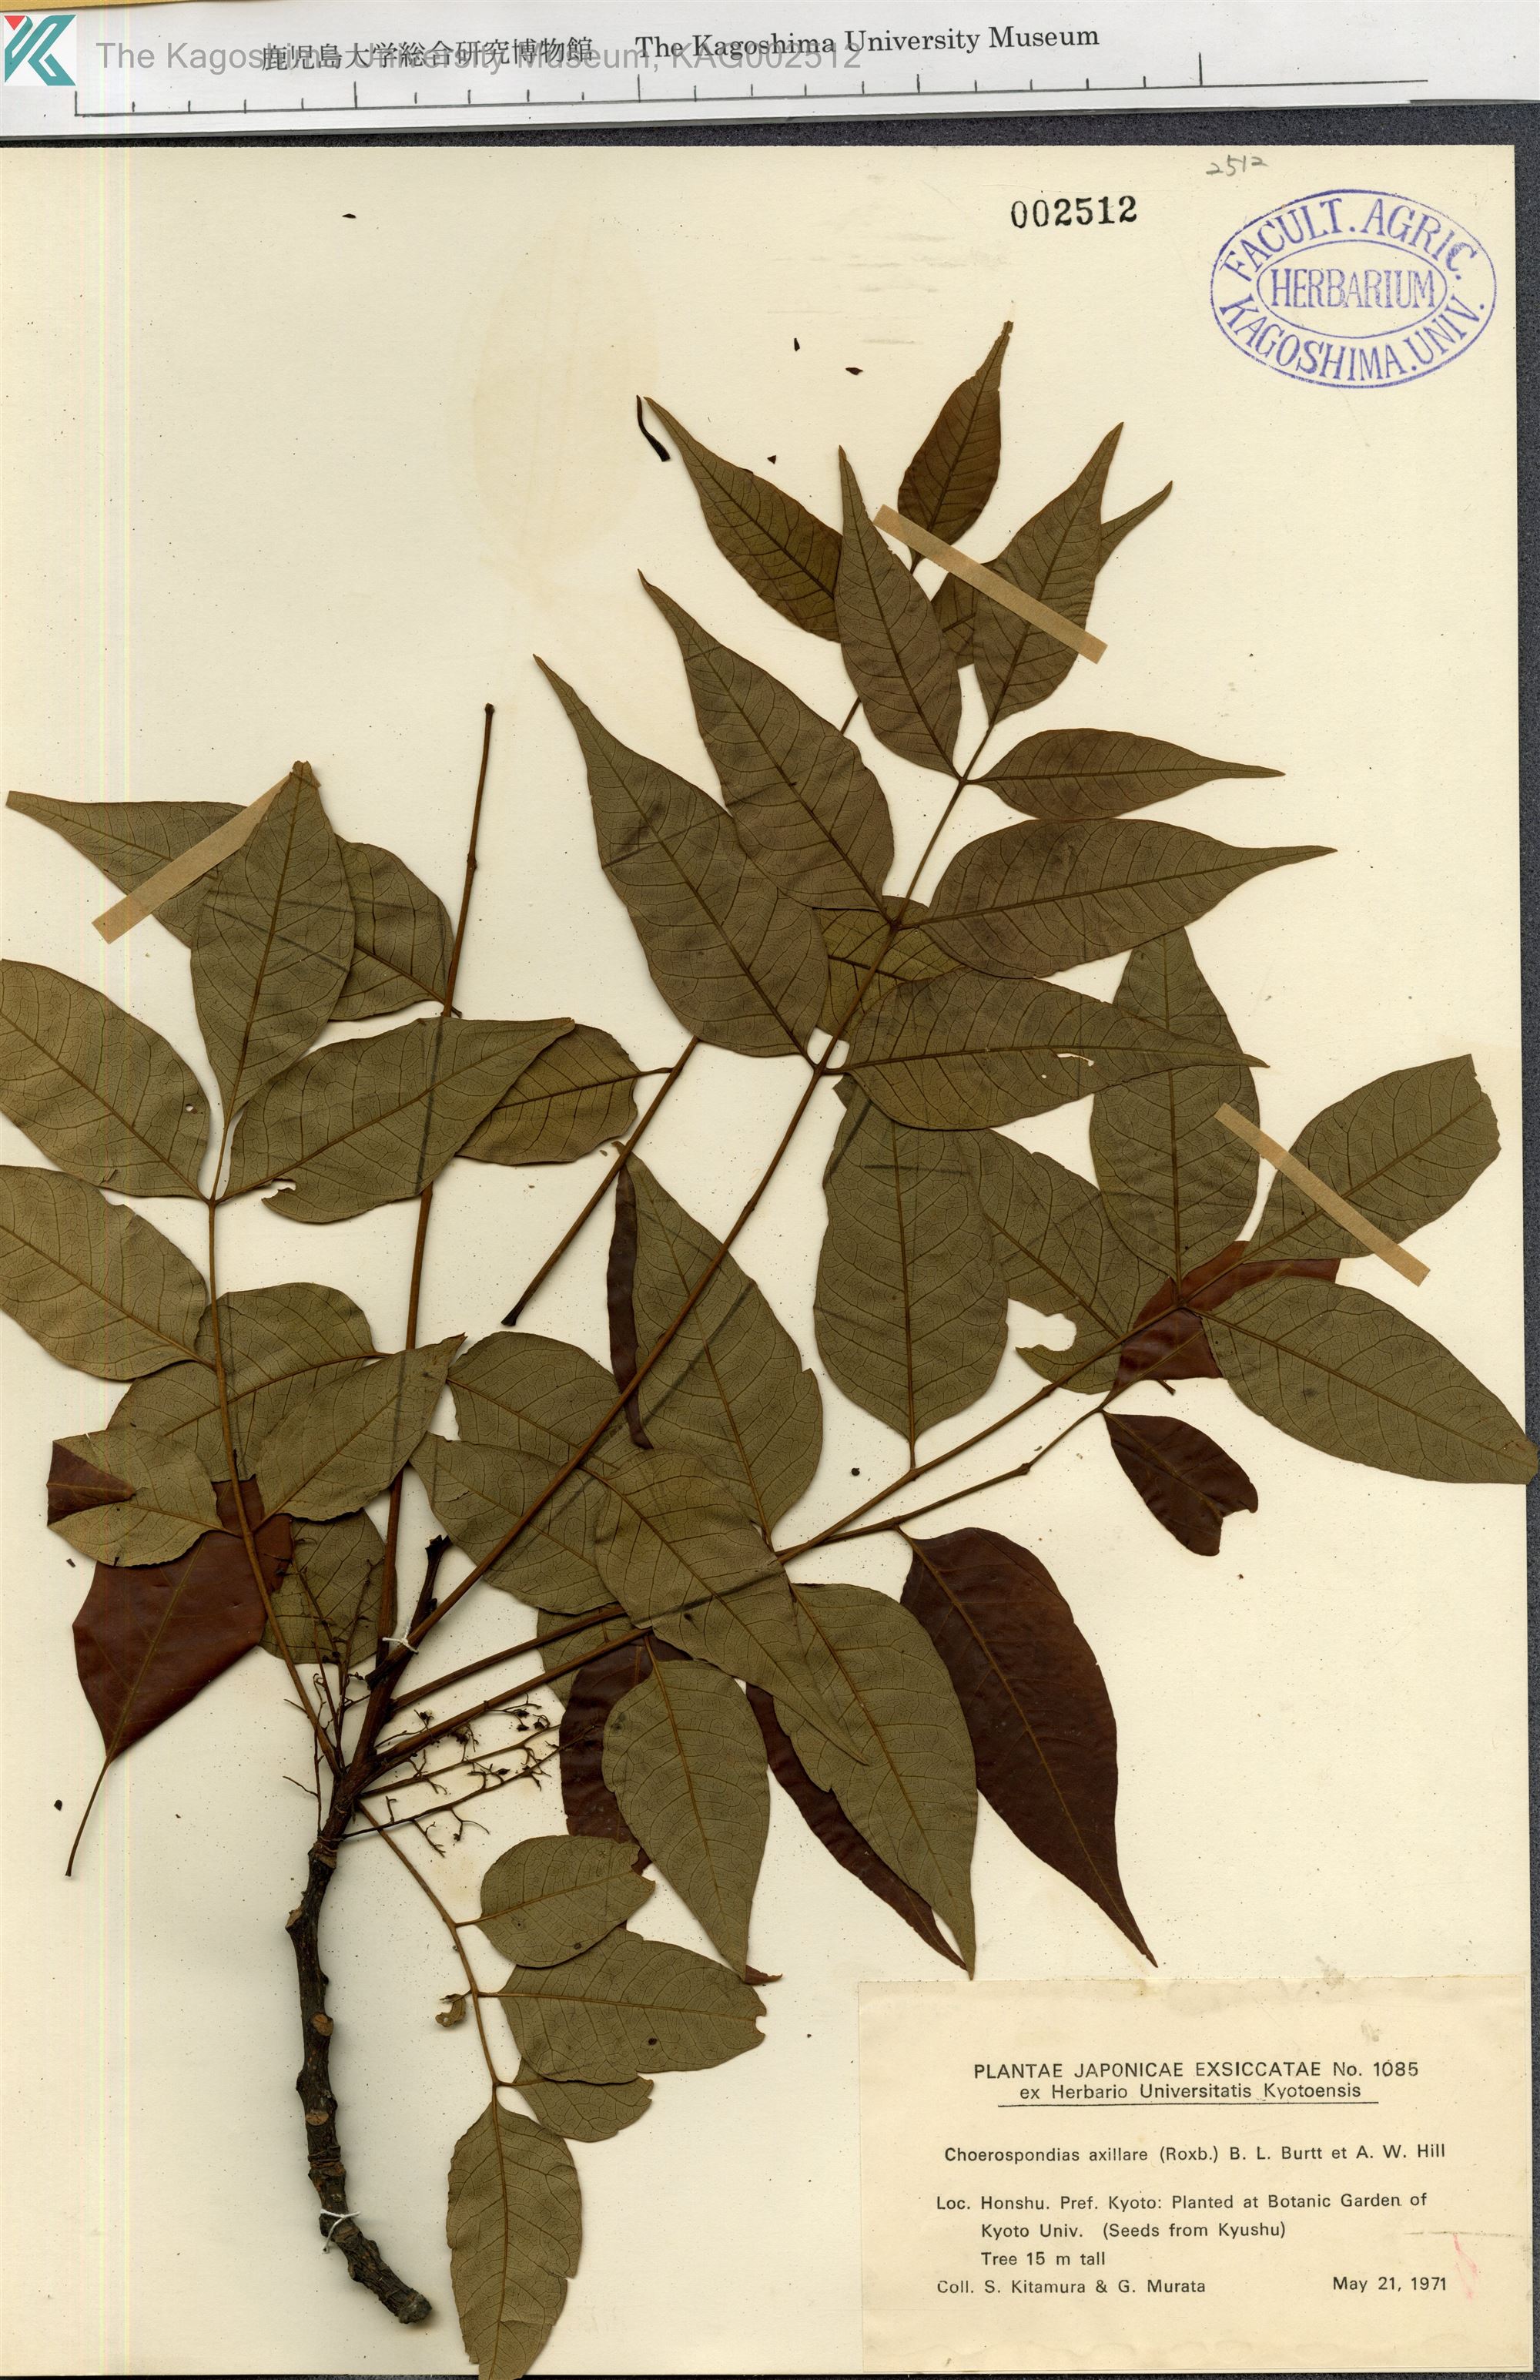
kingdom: Plantae
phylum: Tracheophyta
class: Magnoliopsida
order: Sapindales
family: Anacardiaceae
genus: Choerospondias
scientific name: Choerospondias axillaris
